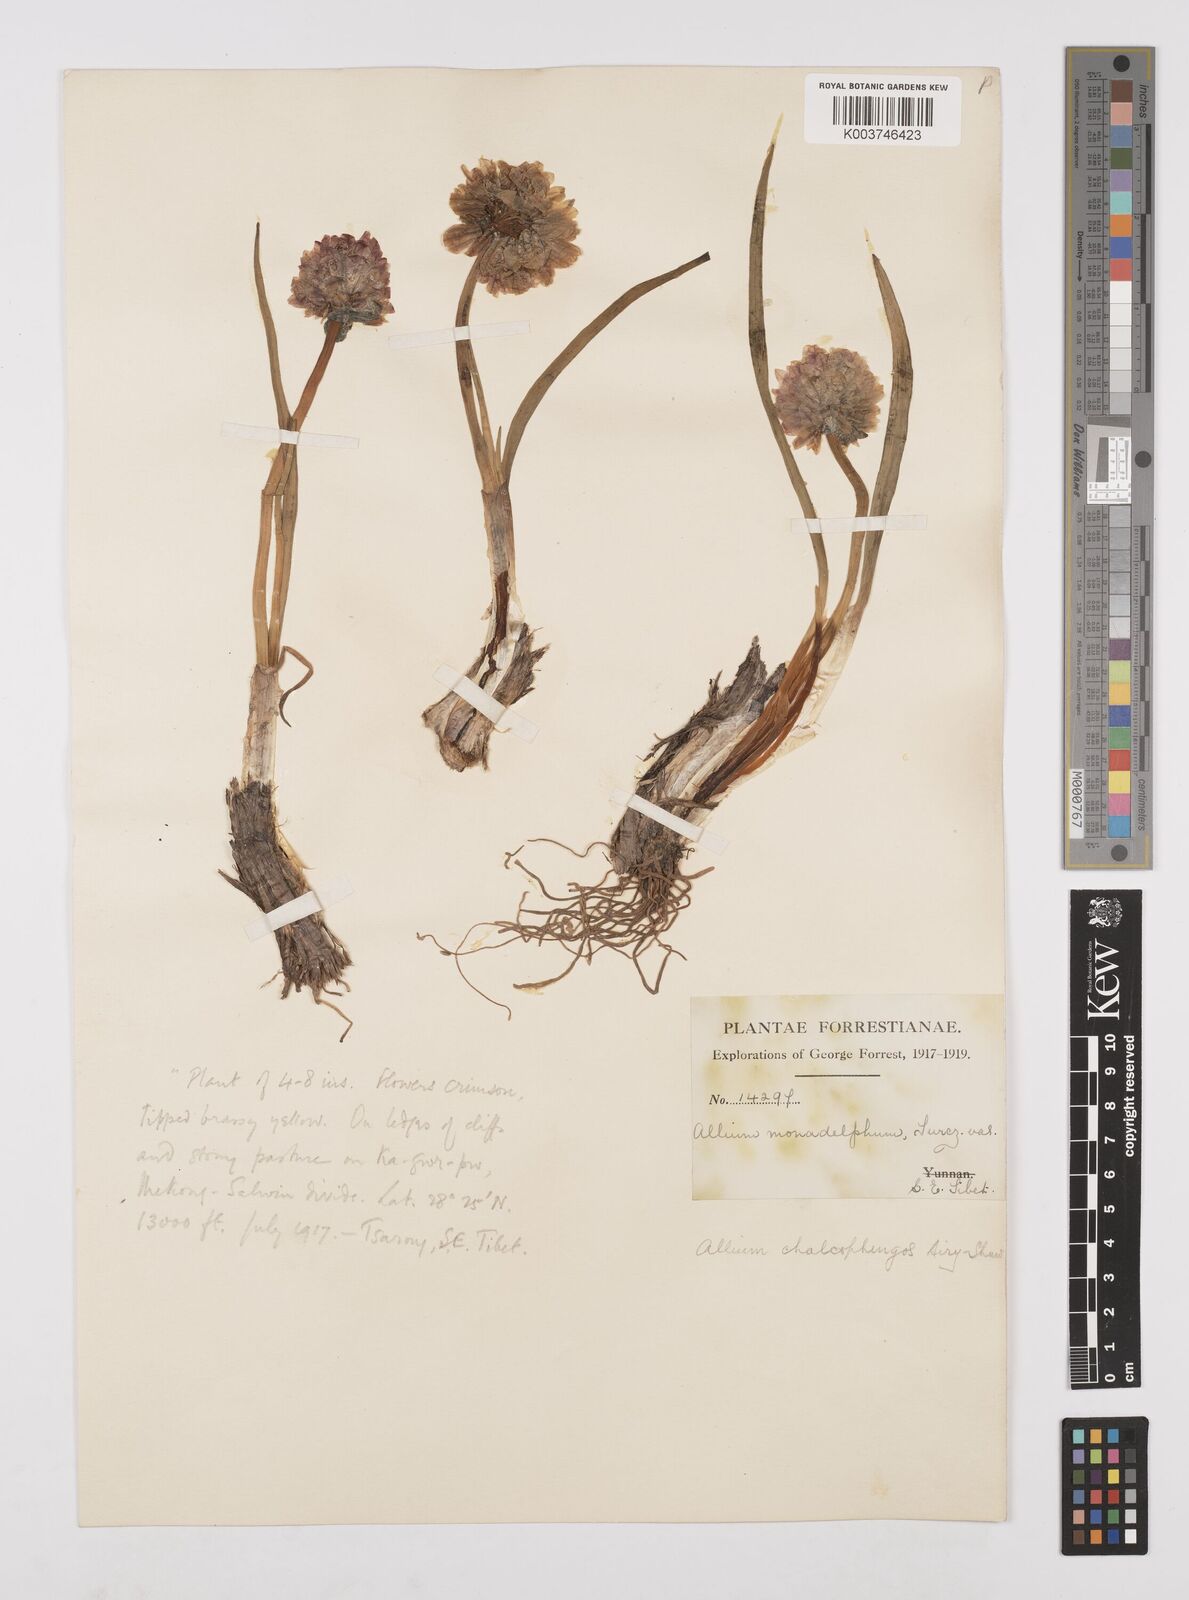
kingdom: Plantae
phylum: Tracheophyta
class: Liliopsida
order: Asparagales
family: Amaryllidaceae
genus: Allium
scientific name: Allium atrosanguineum
